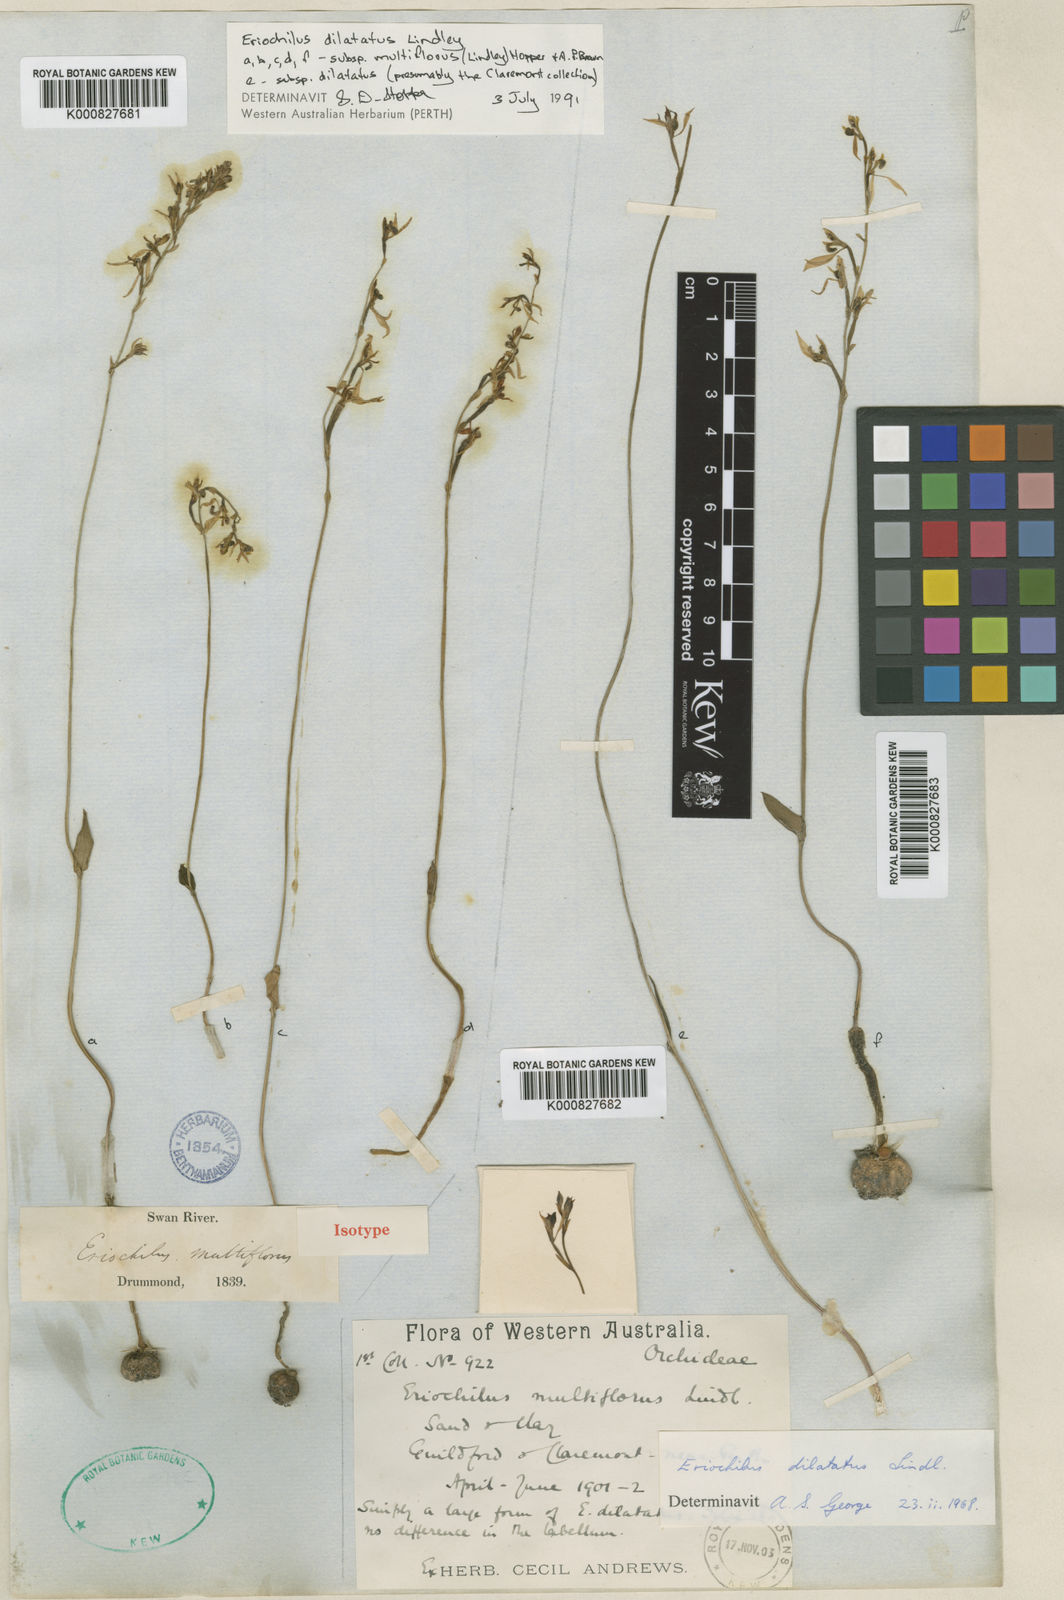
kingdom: Plantae
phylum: Tracheophyta
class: Liliopsida
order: Asparagales
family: Orchidaceae
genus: Eriochilus
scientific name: Eriochilus dilatatus
